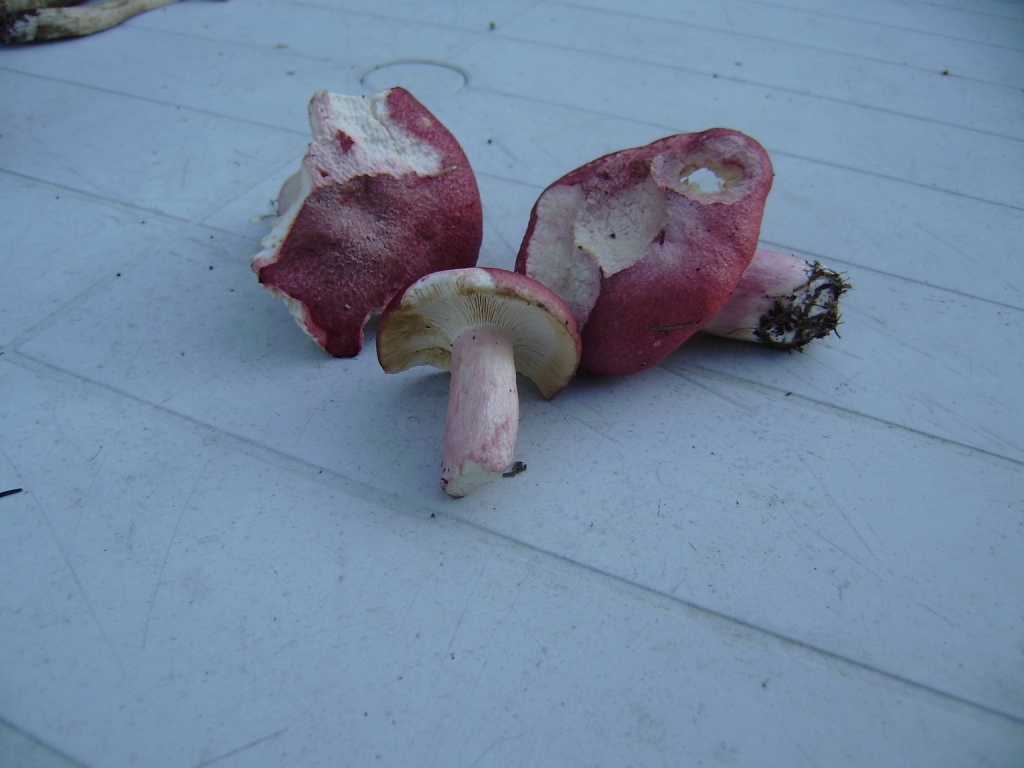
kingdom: Fungi
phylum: Basidiomycota
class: Agaricomycetes
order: Russulales
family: Russulaceae
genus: Russula
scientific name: Russula sanguinea
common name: blodrød skørhat
